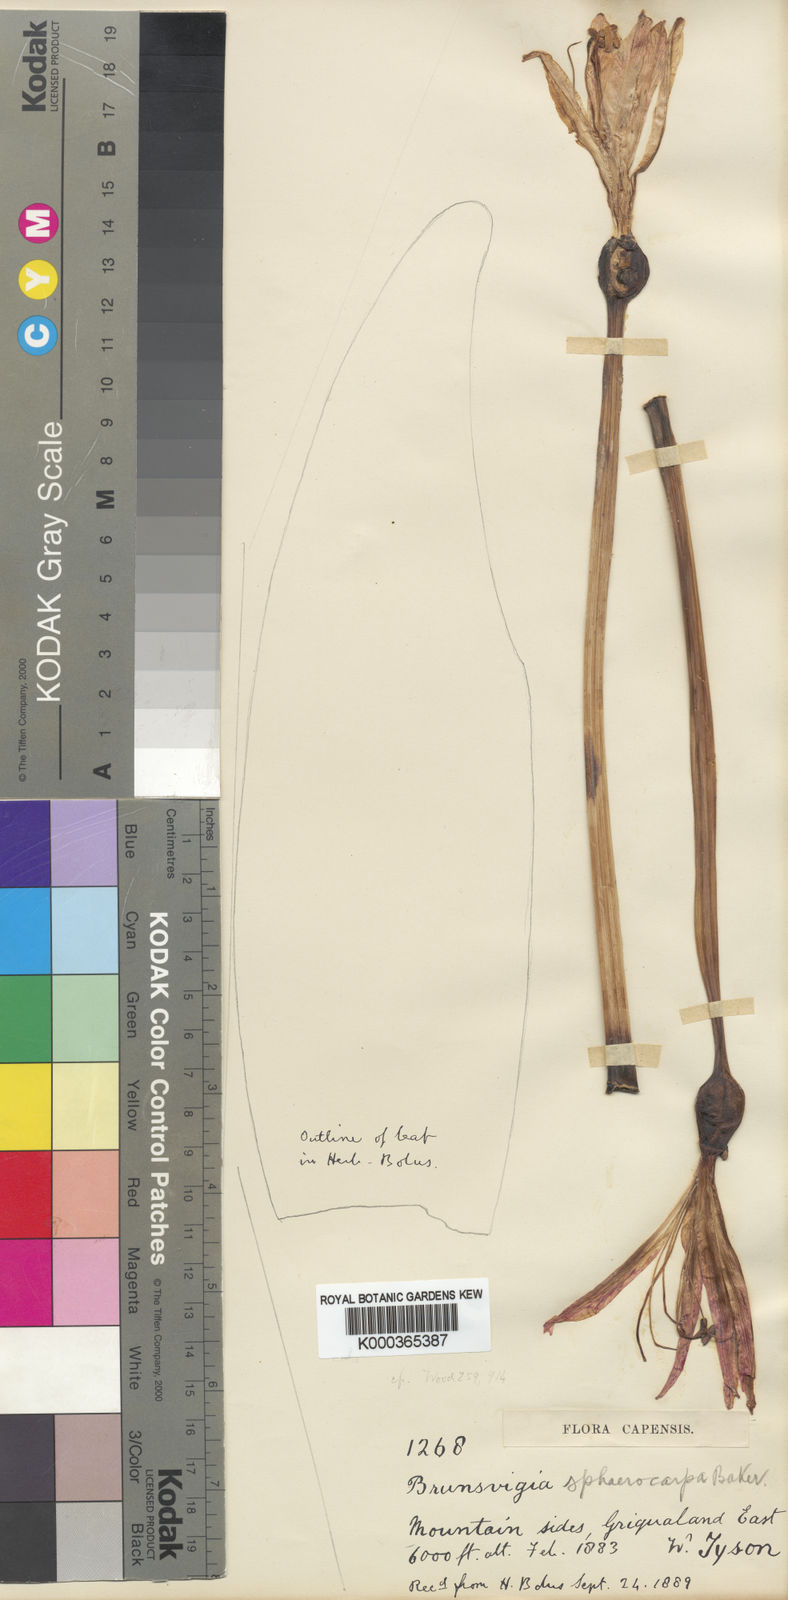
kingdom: Plantae
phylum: Tracheophyta
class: Liliopsida
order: Asparagales
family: Amaryllidaceae
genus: Brunsvigia
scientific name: Brunsvigia grandiflora
